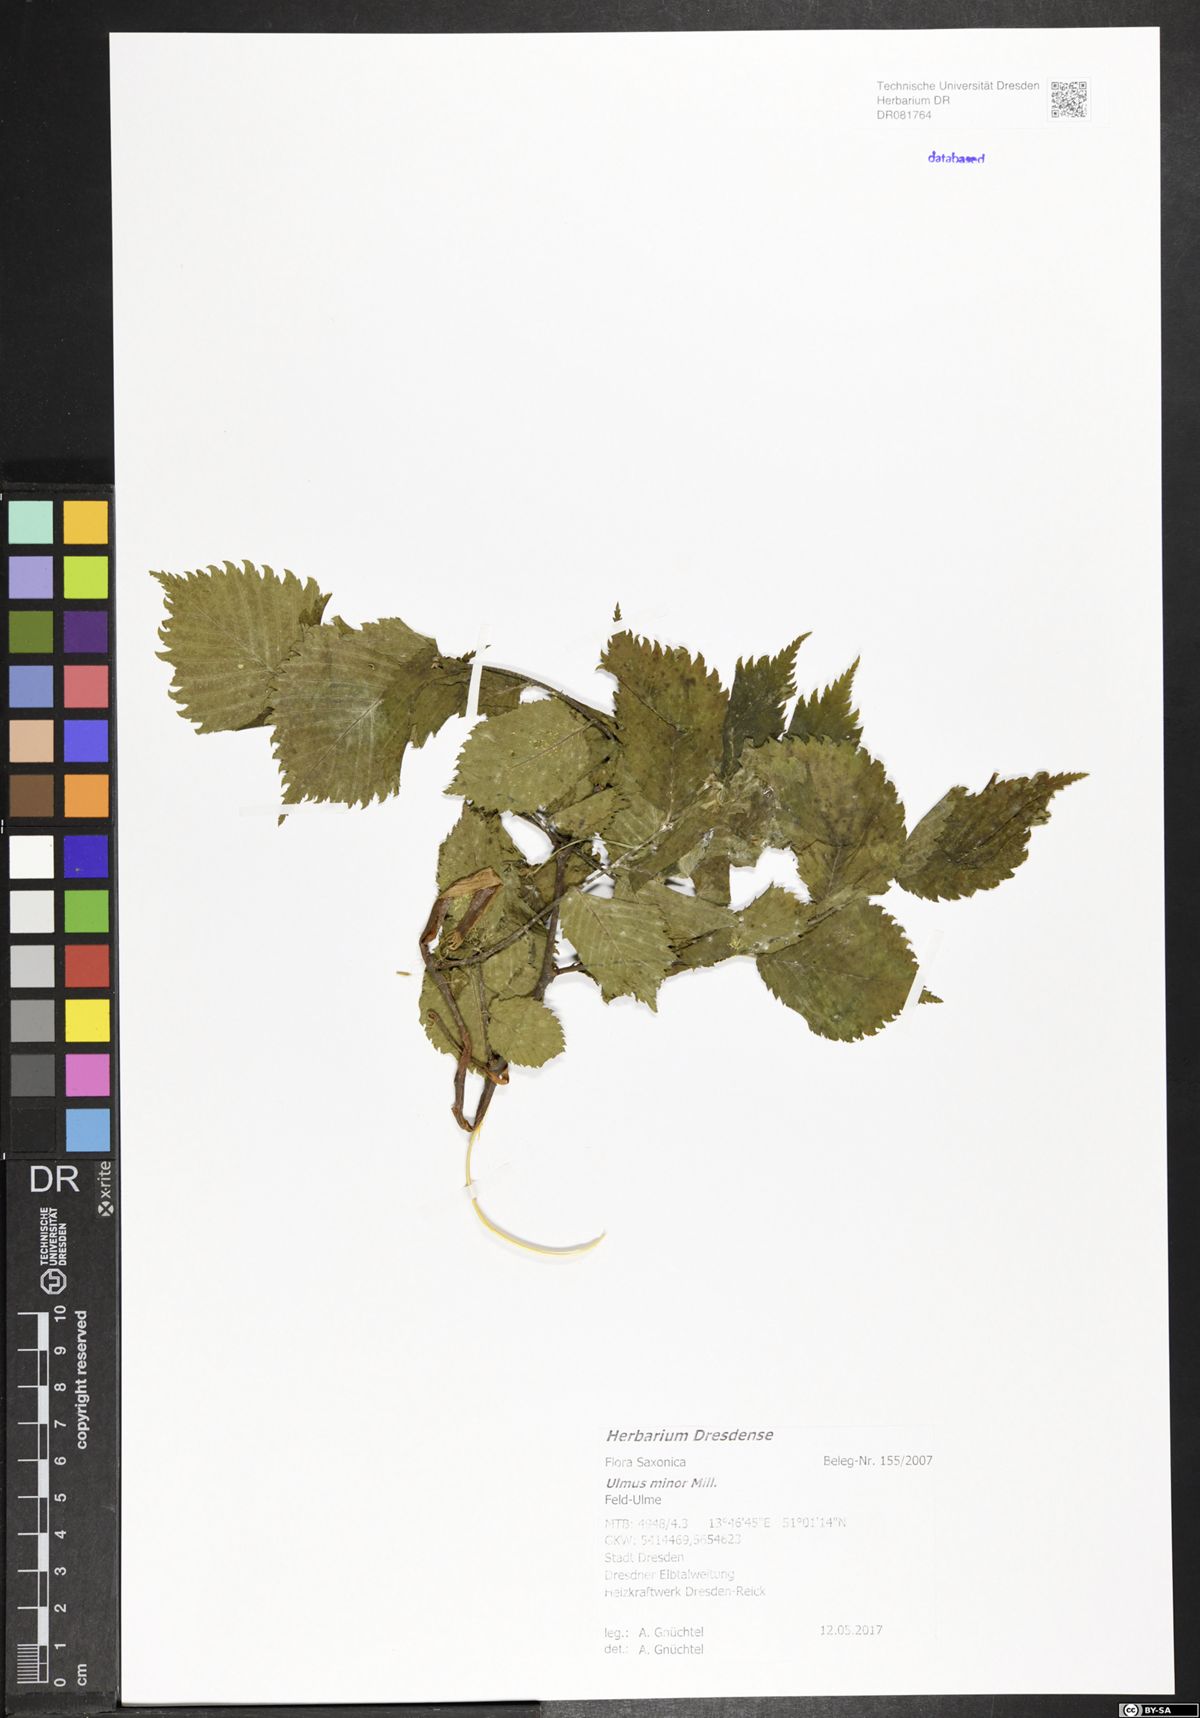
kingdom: Plantae
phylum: Tracheophyta
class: Magnoliopsida
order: Rosales
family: Ulmaceae
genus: Ulmus
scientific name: Ulmus minor
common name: Small-leaved elm
